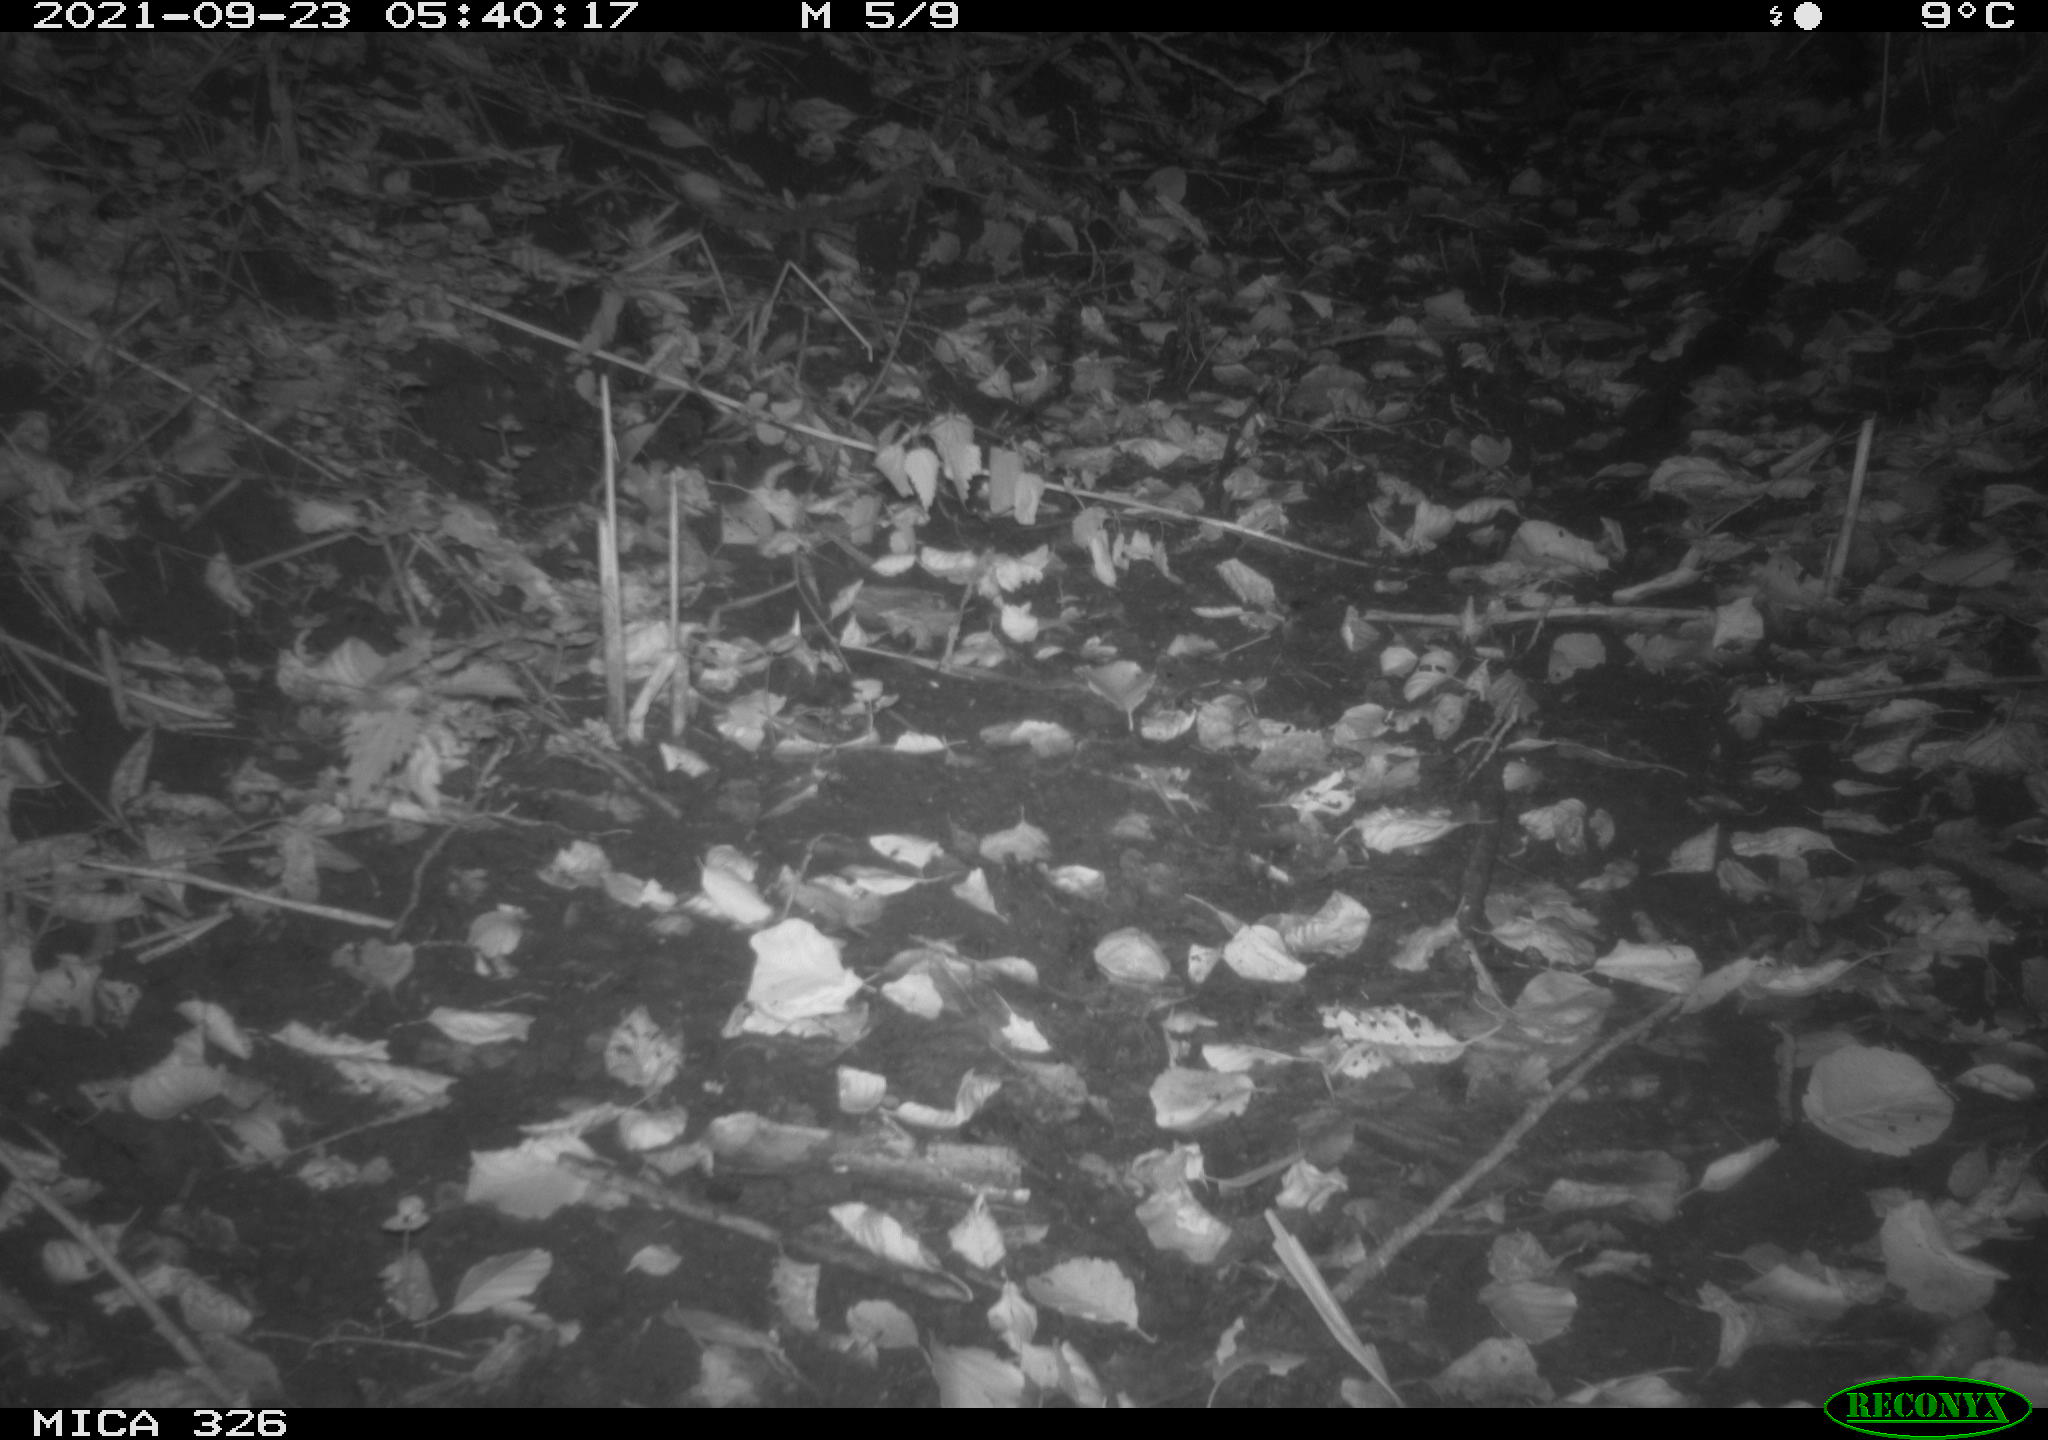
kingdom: Animalia
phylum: Chordata
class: Mammalia
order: Carnivora
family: Mustelidae
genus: Lutra
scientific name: Lutra lutra
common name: European otter
